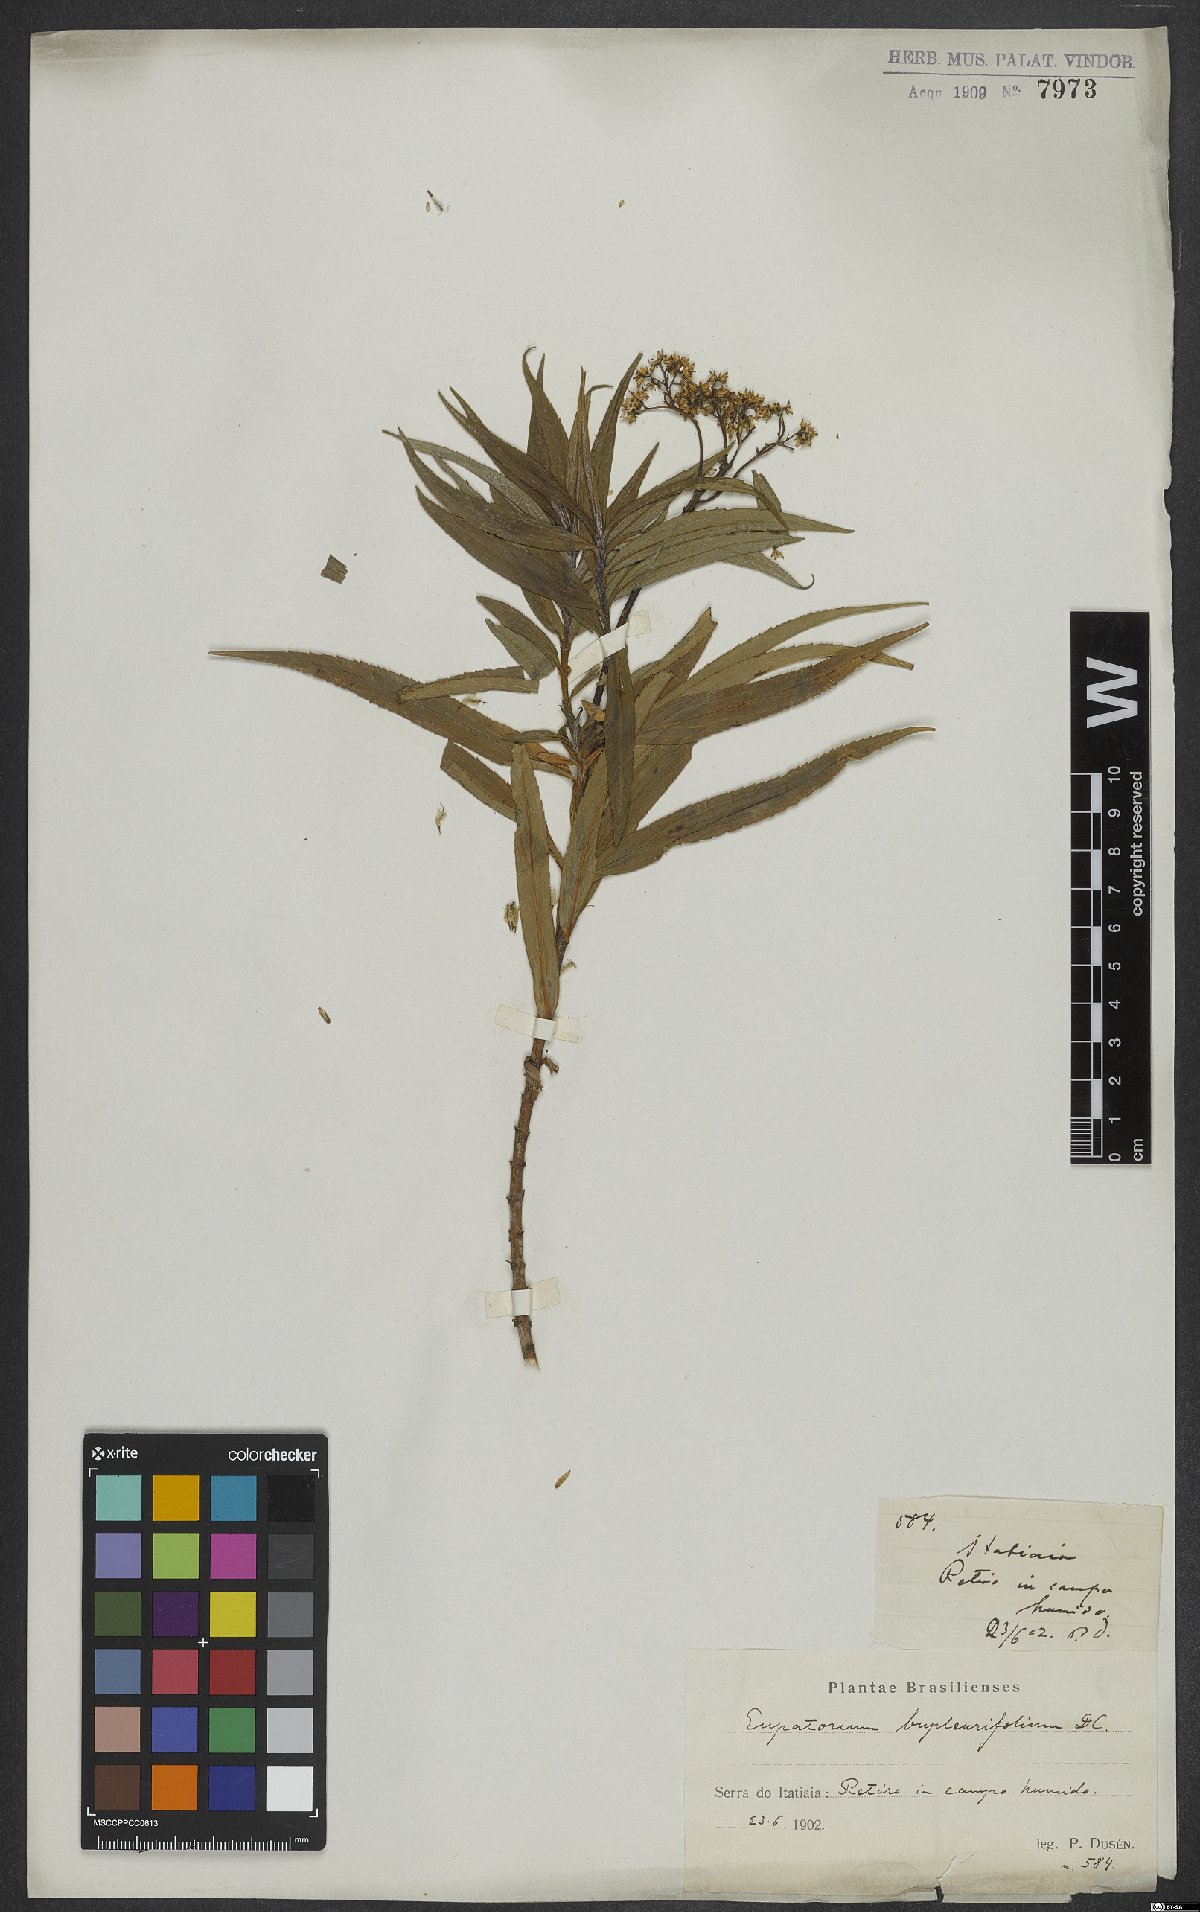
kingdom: Plantae
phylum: Tracheophyta
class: Magnoliopsida
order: Asterales
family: Asteraceae
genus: Campovassouria
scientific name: Campovassouria cruciata
